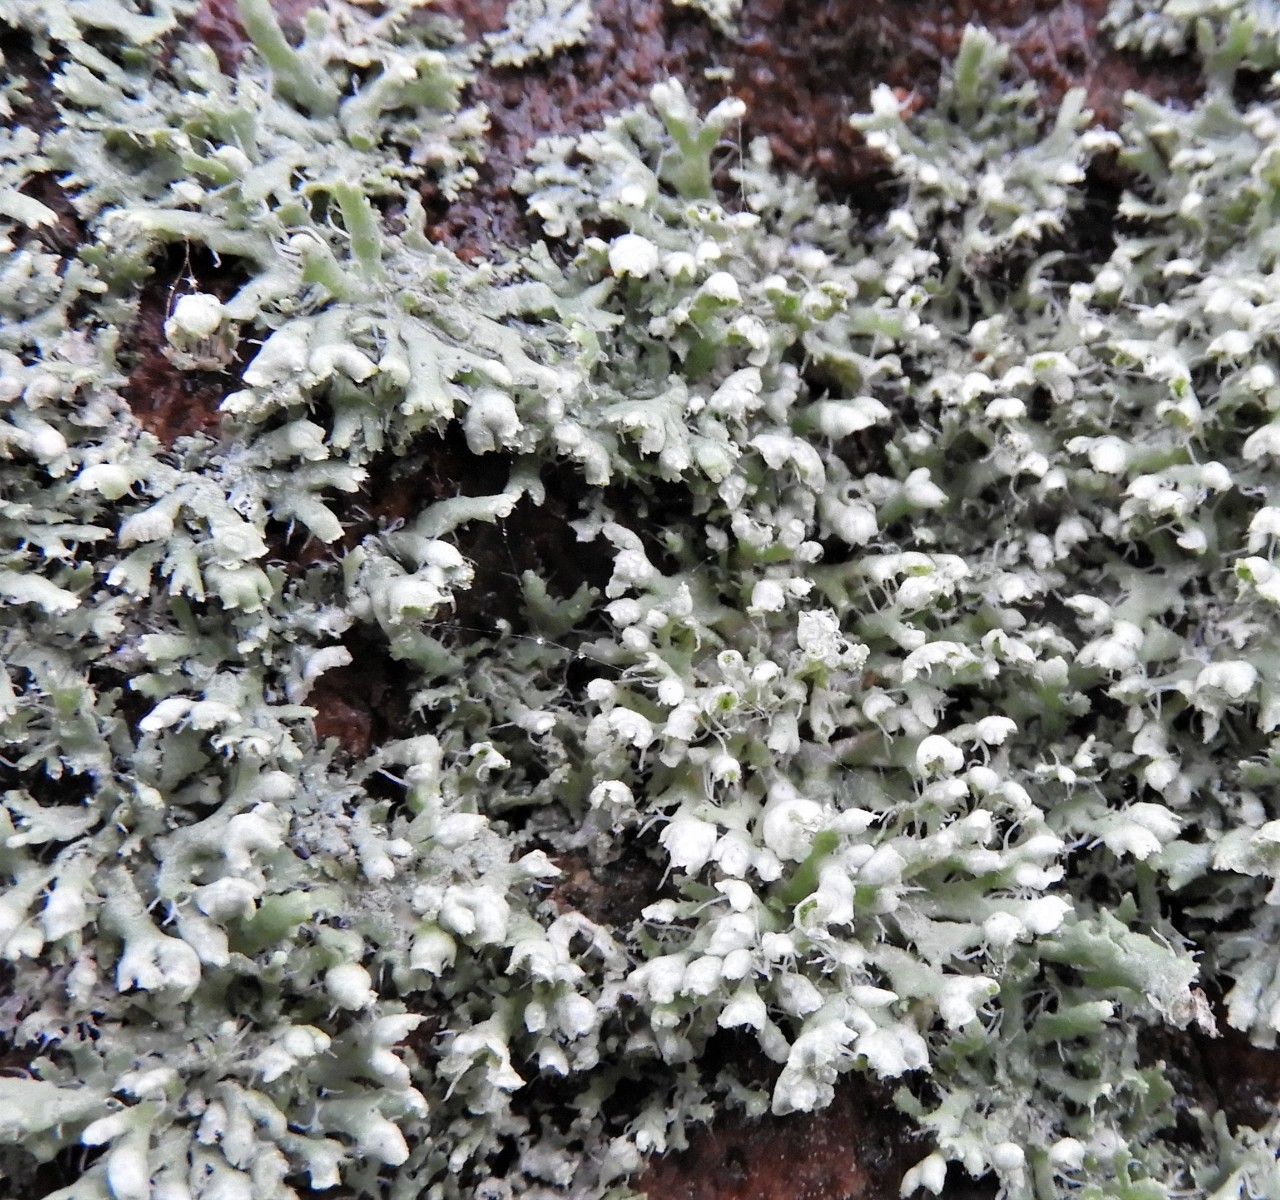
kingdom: Fungi
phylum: Ascomycota
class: Lecanoromycetes
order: Caliciales
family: Physciaceae
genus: Physcia
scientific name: Physcia adscendens
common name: hætte-rosetlav
